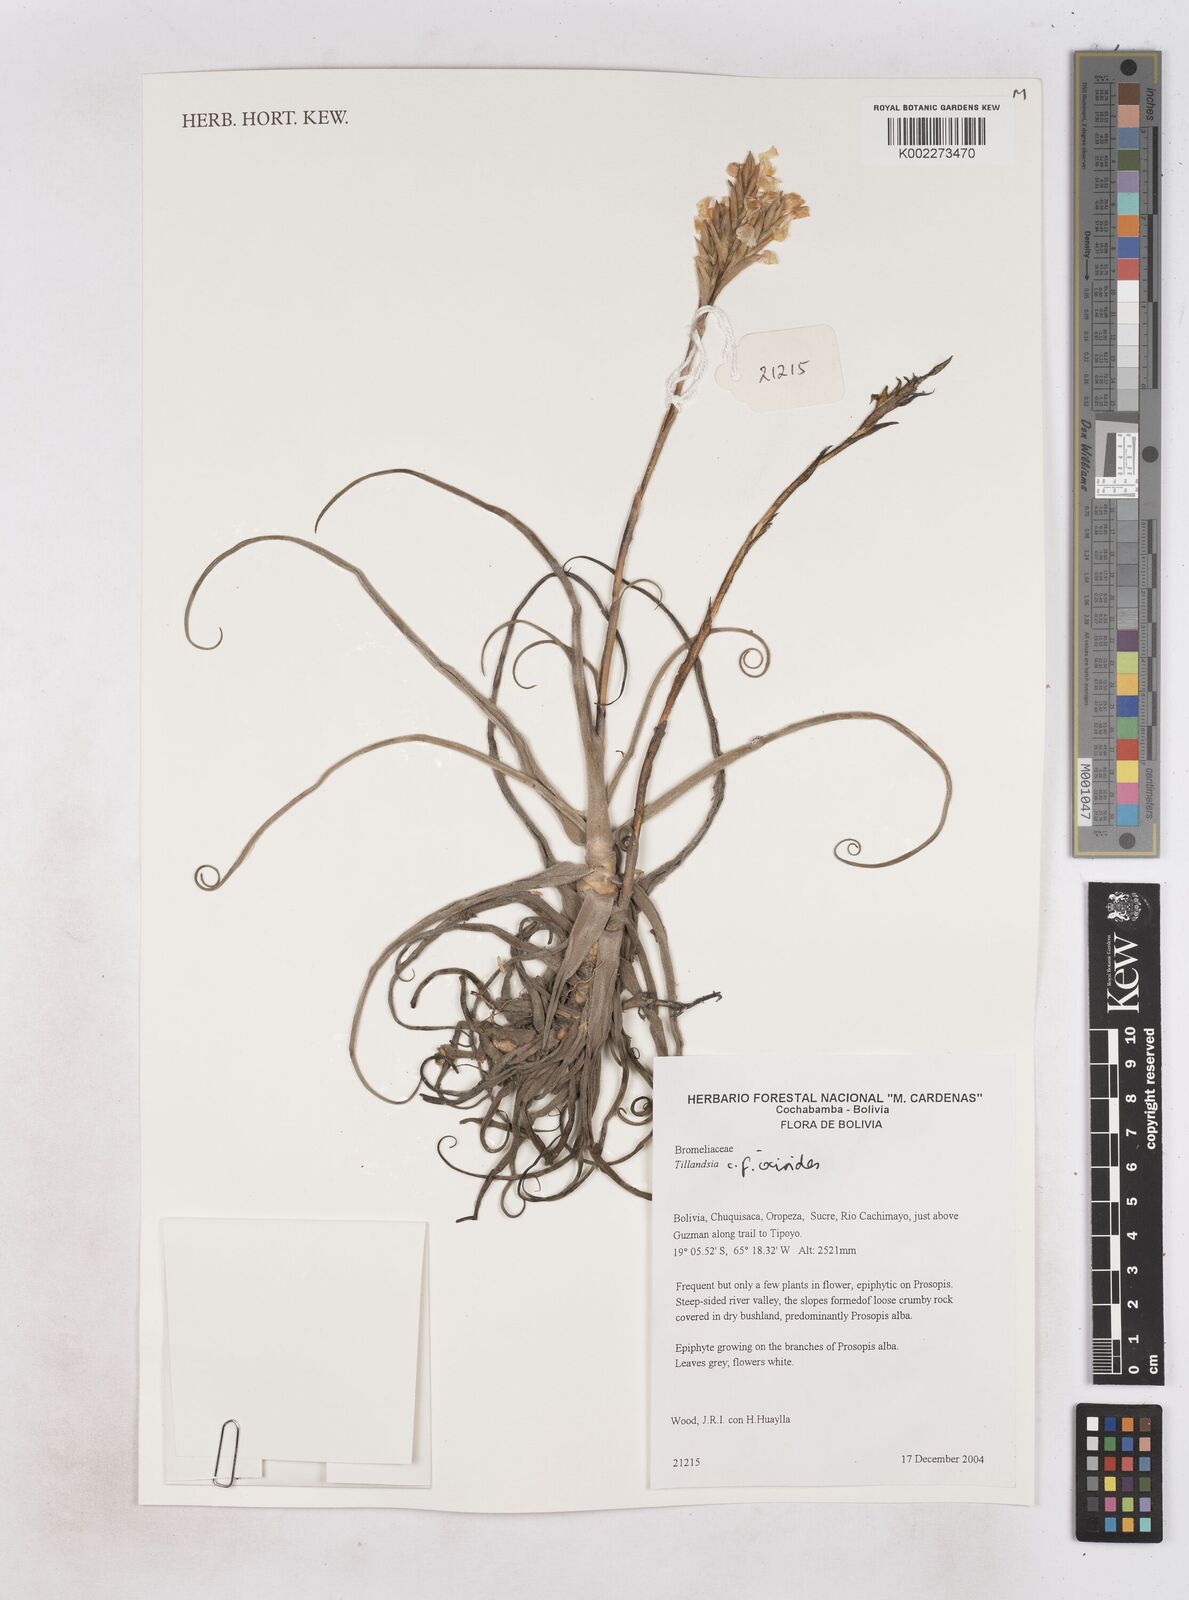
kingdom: Plantae
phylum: Tracheophyta
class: Liliopsida
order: Poales
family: Bromeliaceae
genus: Tillandsia
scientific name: Tillandsia ixioides
